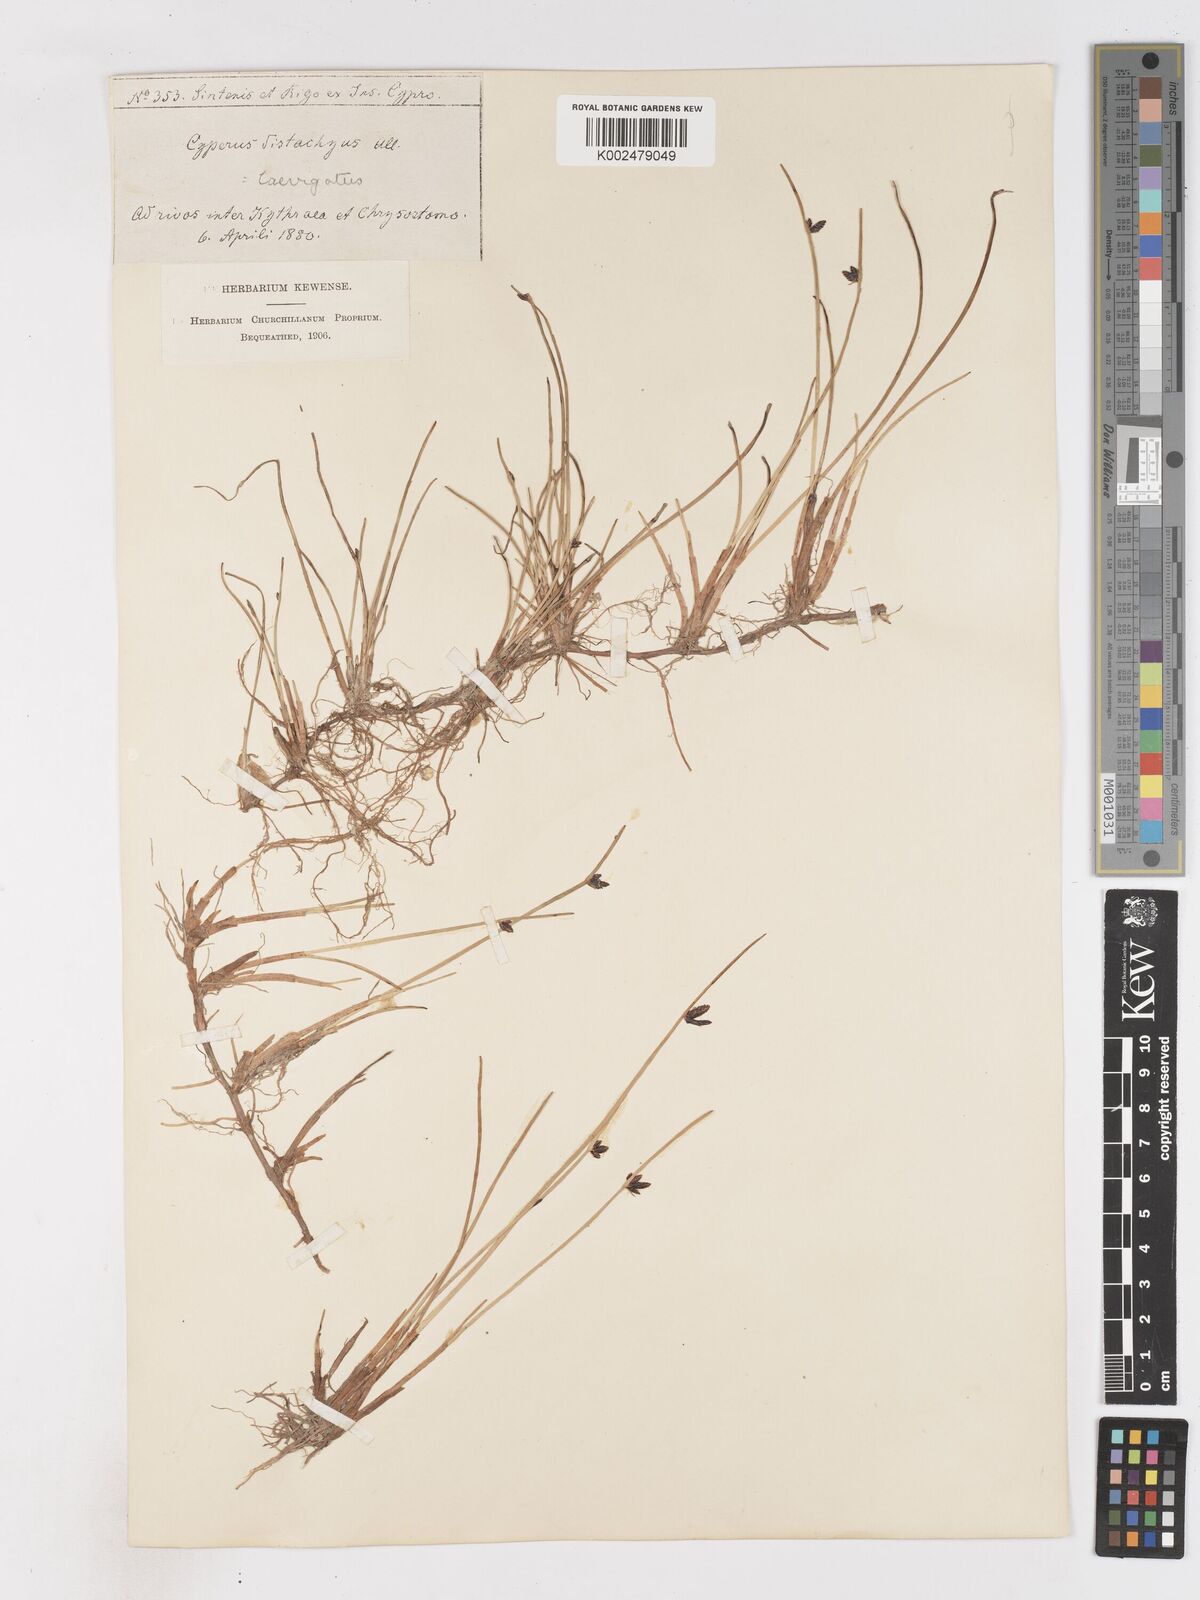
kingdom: Plantae
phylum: Tracheophyta
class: Liliopsida
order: Poales
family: Cyperaceae
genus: Cyperus
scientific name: Cyperus laevigatus
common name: Smooth flat sedge
